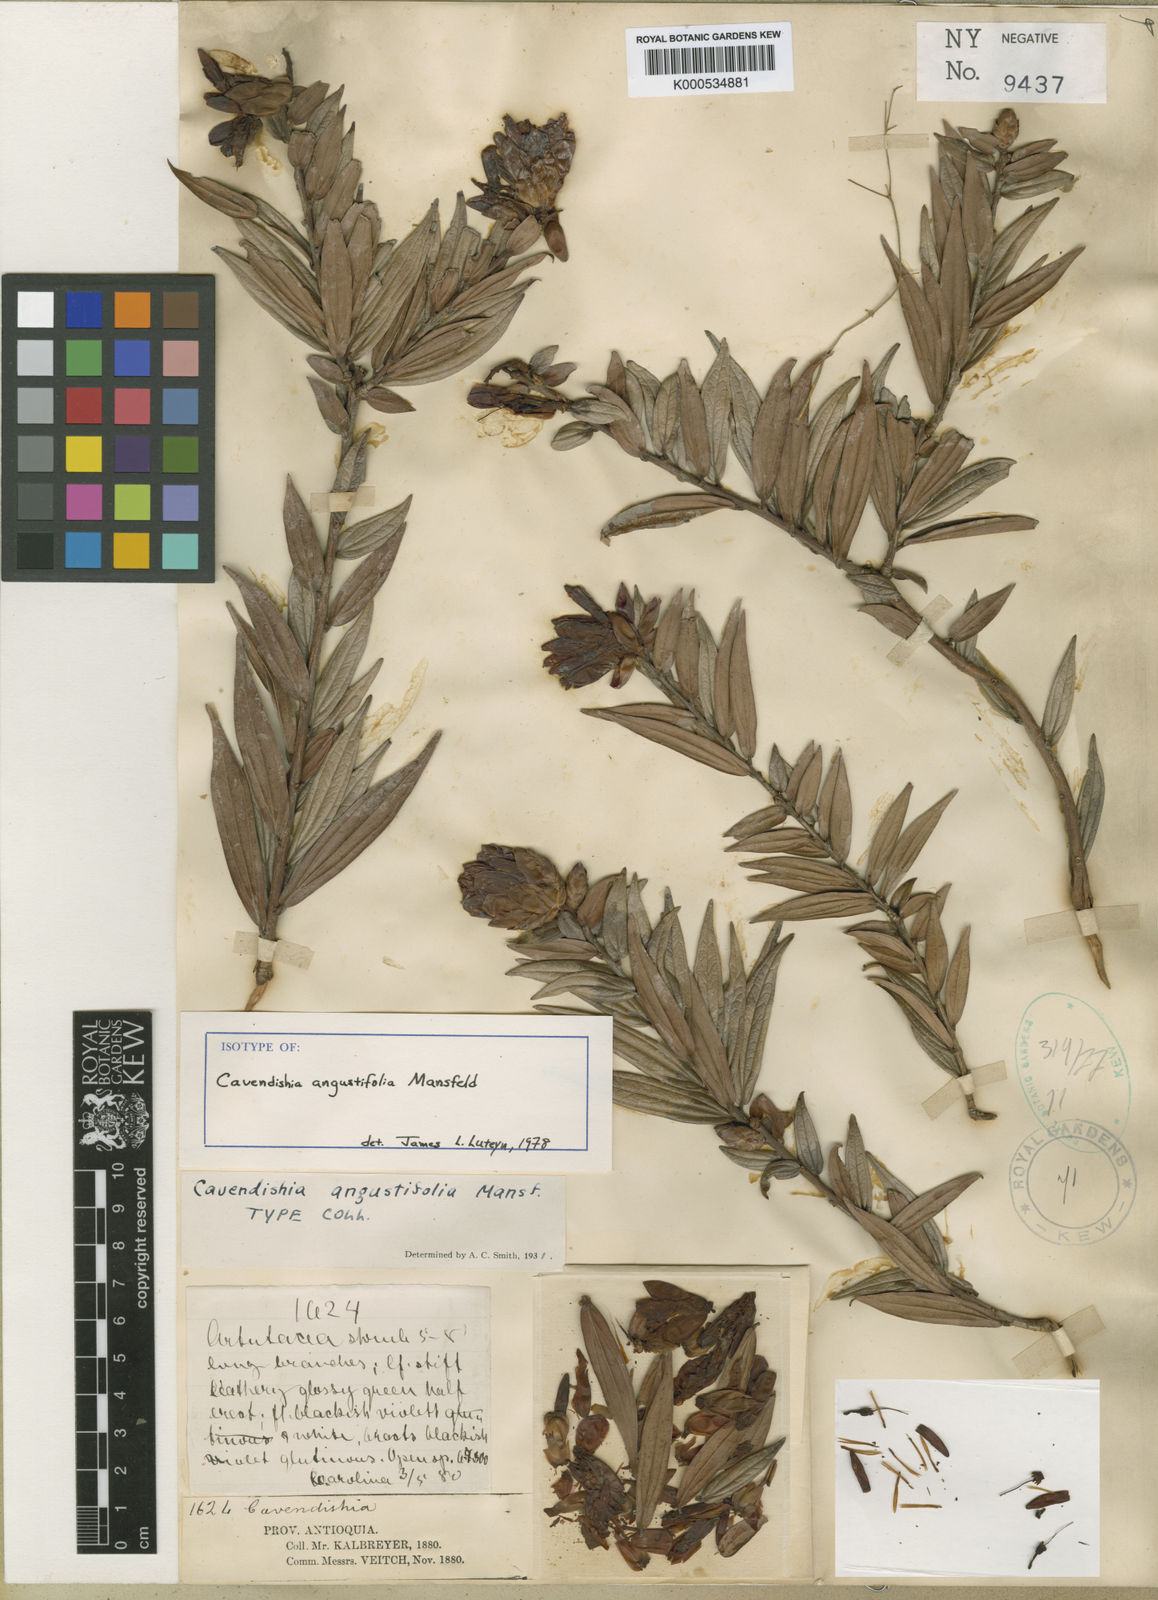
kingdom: Plantae
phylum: Tracheophyta
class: Magnoliopsida
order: Ericales
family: Ericaceae
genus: Cavendishia
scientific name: Cavendishia angustifolia
